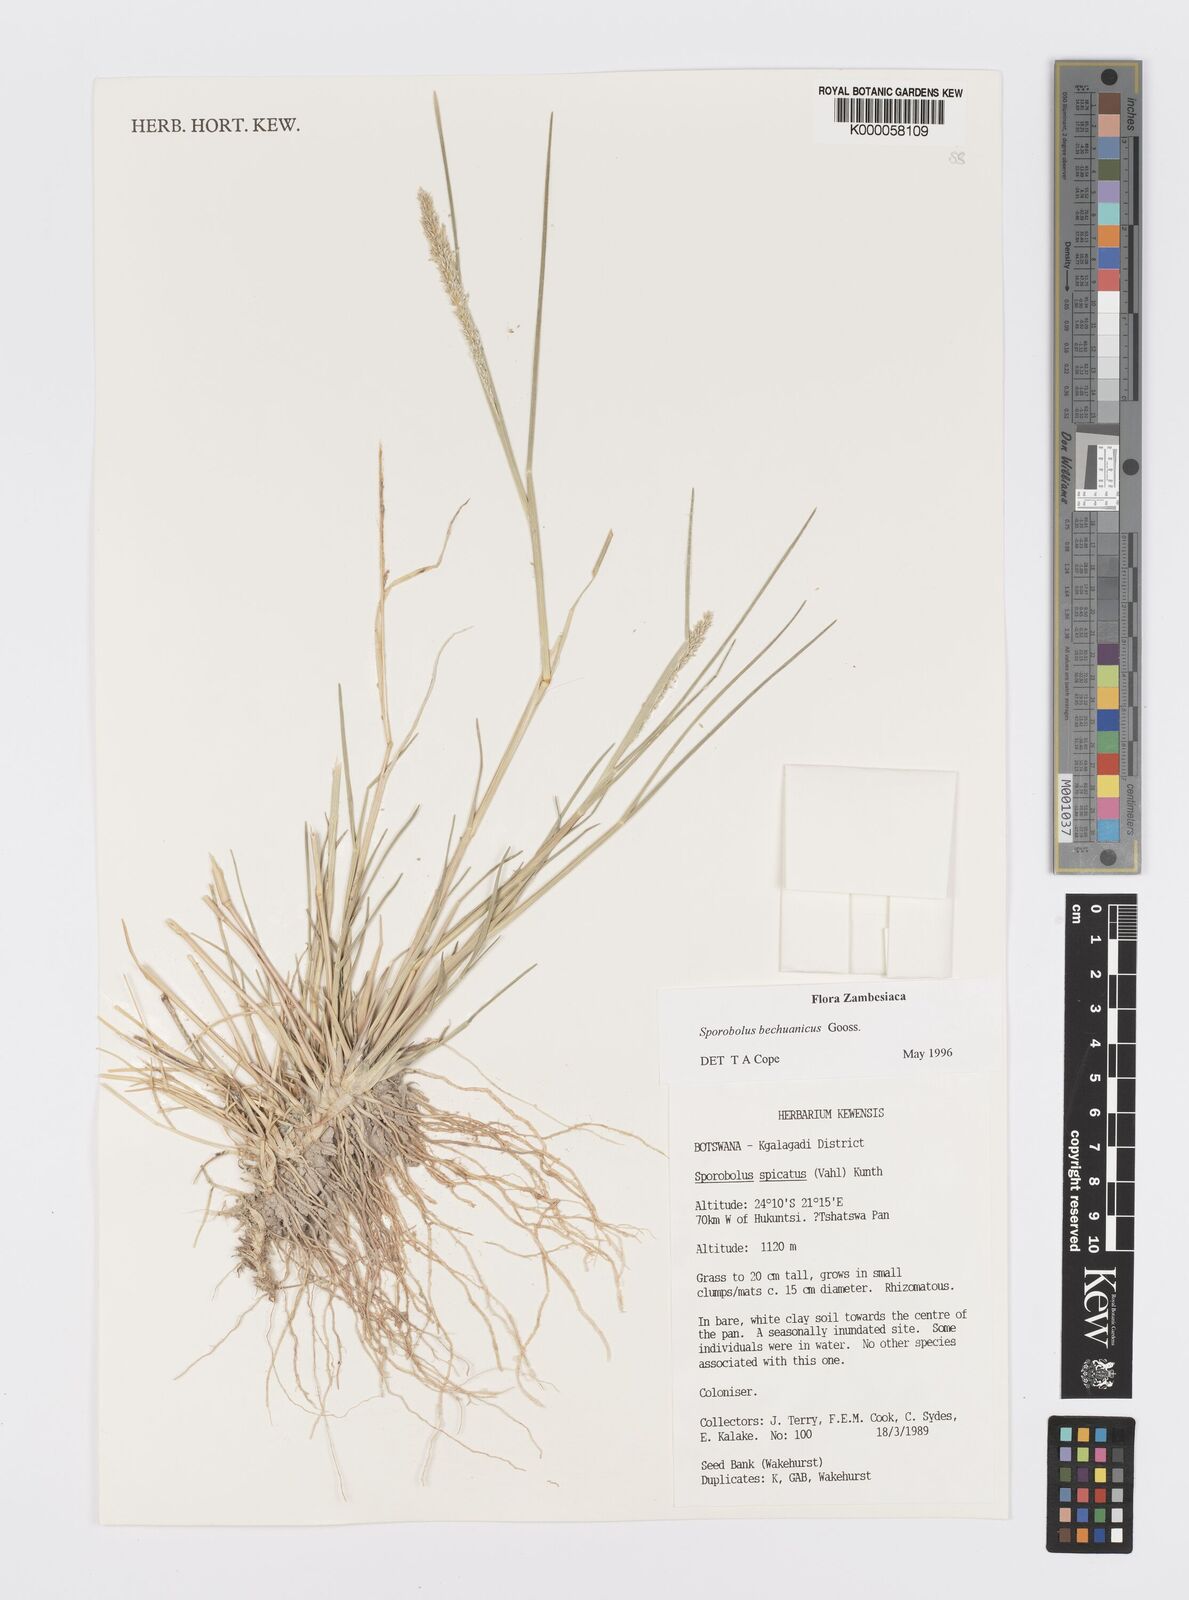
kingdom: Plantae
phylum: Tracheophyta
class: Liliopsida
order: Poales
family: Poaceae
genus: Sporobolus
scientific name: Sporobolus bechuanicus
